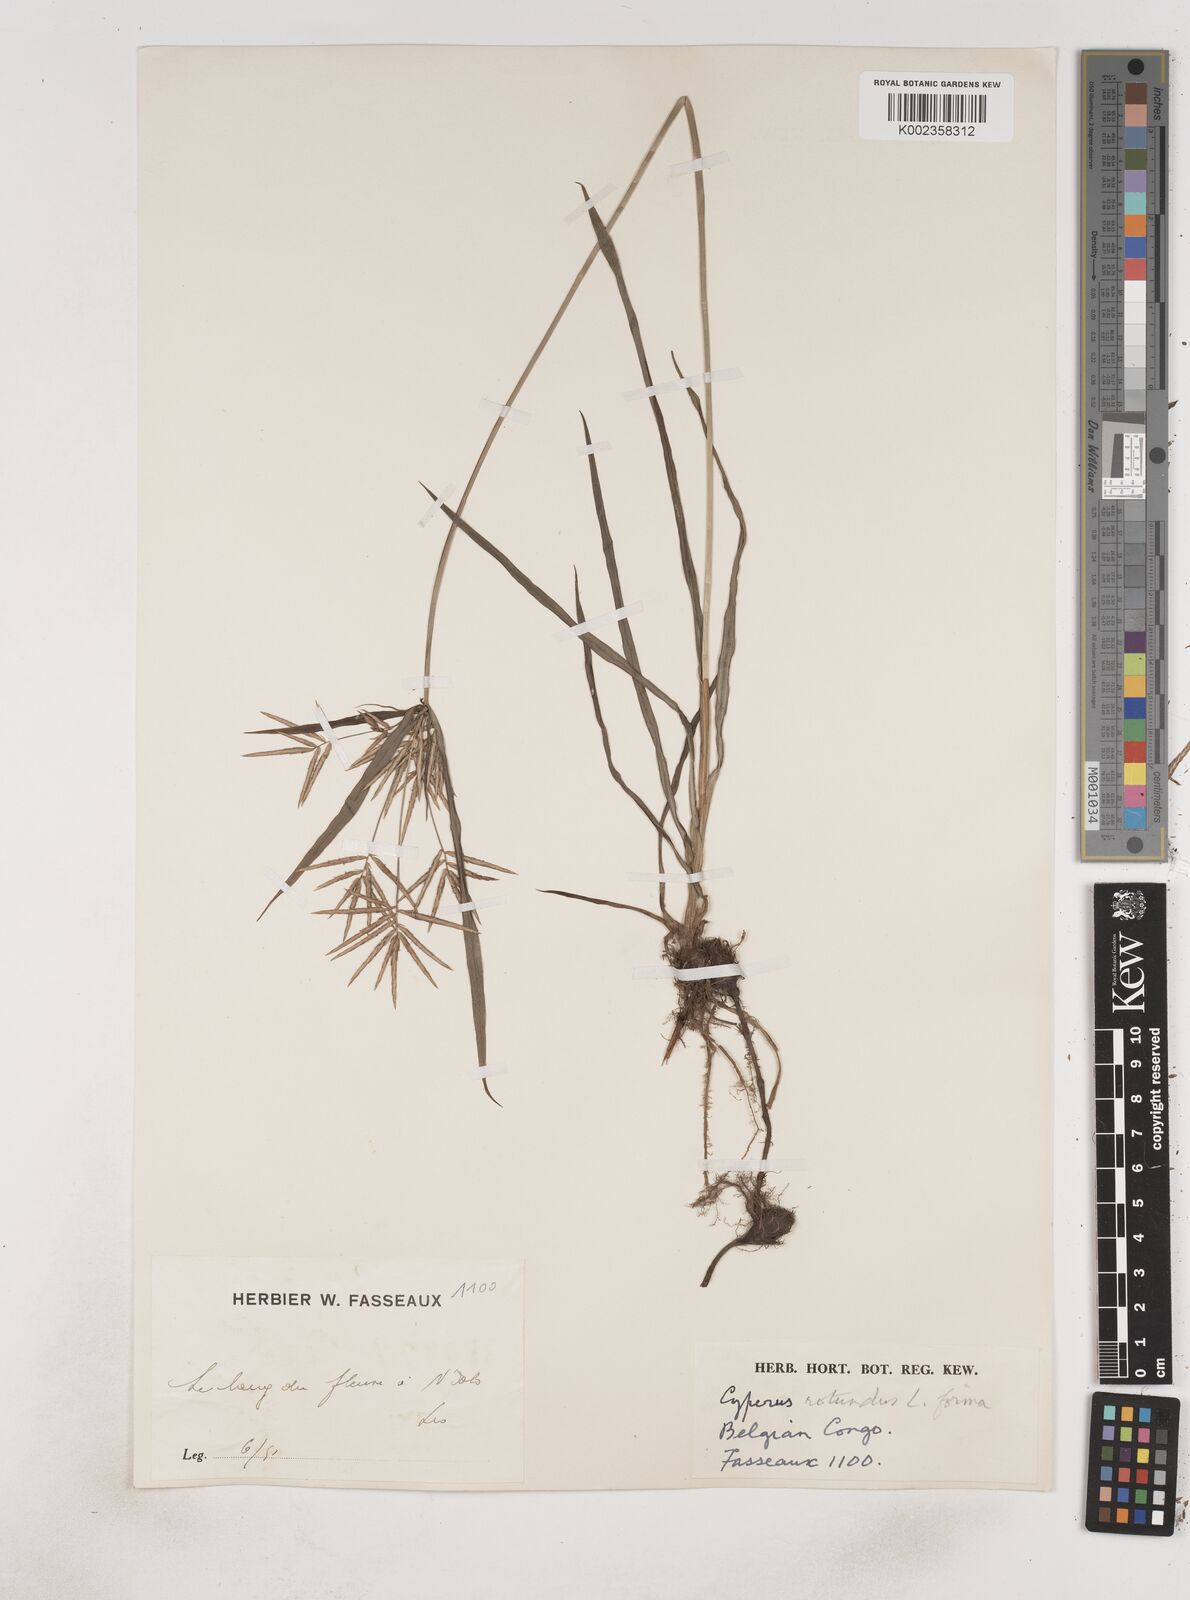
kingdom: Plantae
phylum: Tracheophyta
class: Liliopsida
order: Poales
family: Cyperaceae
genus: Cyperus
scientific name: Cyperus rotundus
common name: Nutgrass
